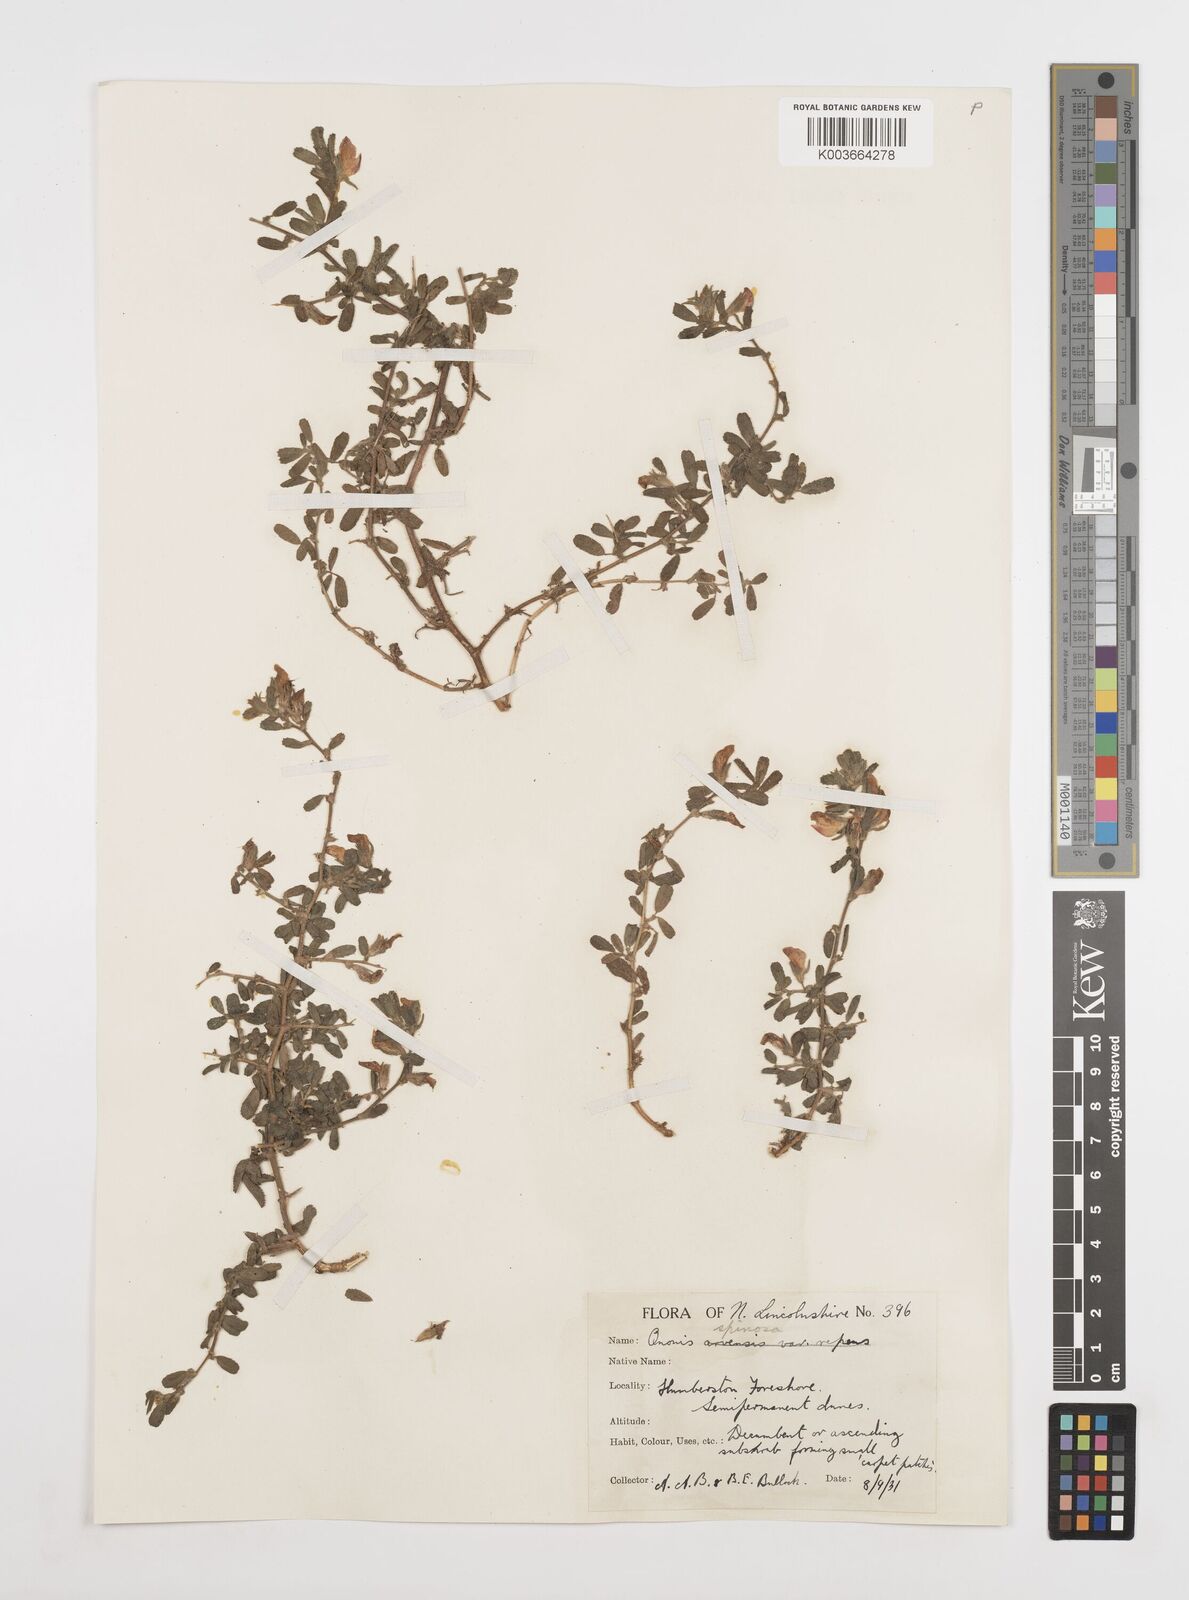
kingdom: Plantae
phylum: Tracheophyta
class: Magnoliopsida
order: Fabales
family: Fabaceae
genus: Ononis
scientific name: Ononis spinosa
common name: Spiny restharrow
